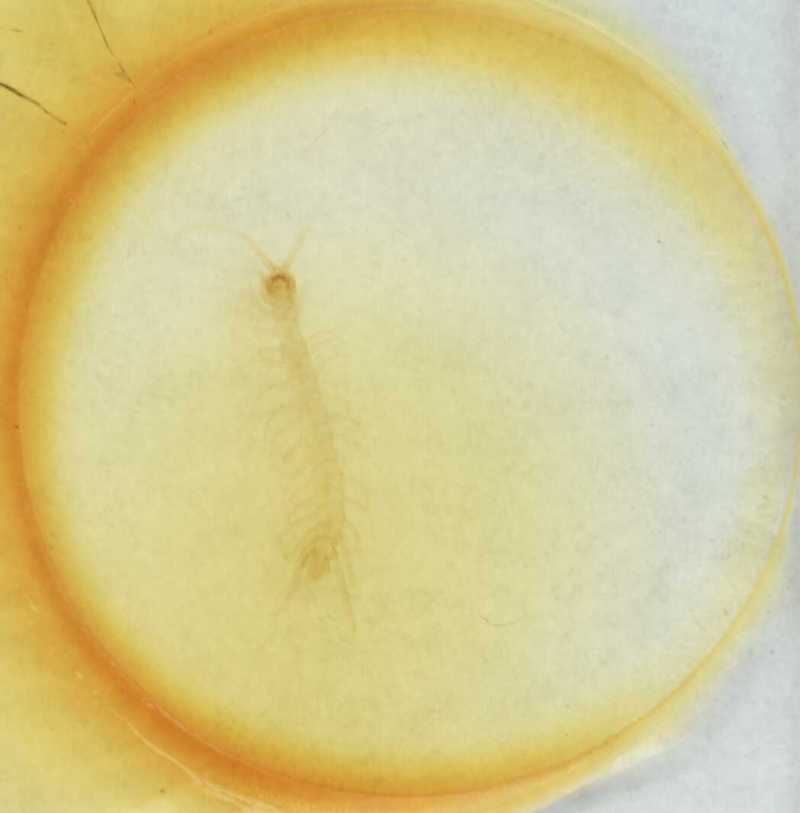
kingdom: Animalia
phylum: Arthropoda
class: Chilopoda
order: Lithobiomorpha
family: Lithobiidae
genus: Lithobius
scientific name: Lithobius
